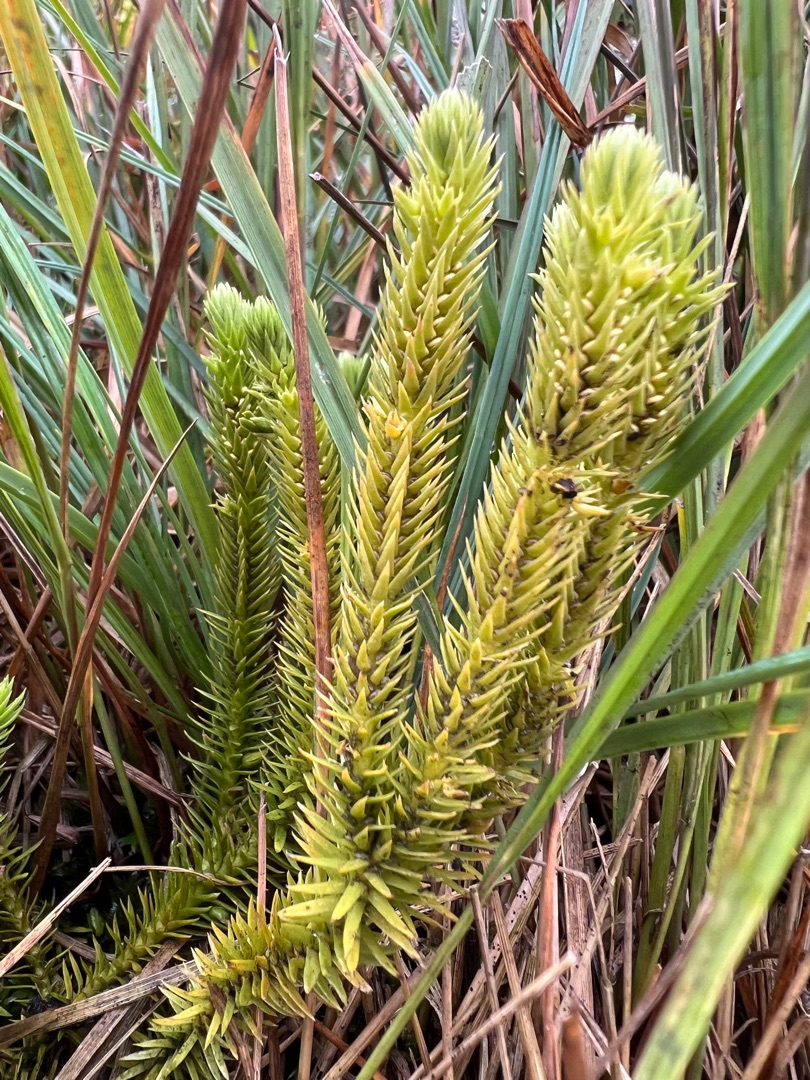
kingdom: Plantae
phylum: Tracheophyta
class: Lycopodiopsida
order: Lycopodiales
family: Lycopodiaceae
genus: Huperzia
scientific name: Huperzia selago
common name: Otteradet ulvefod
